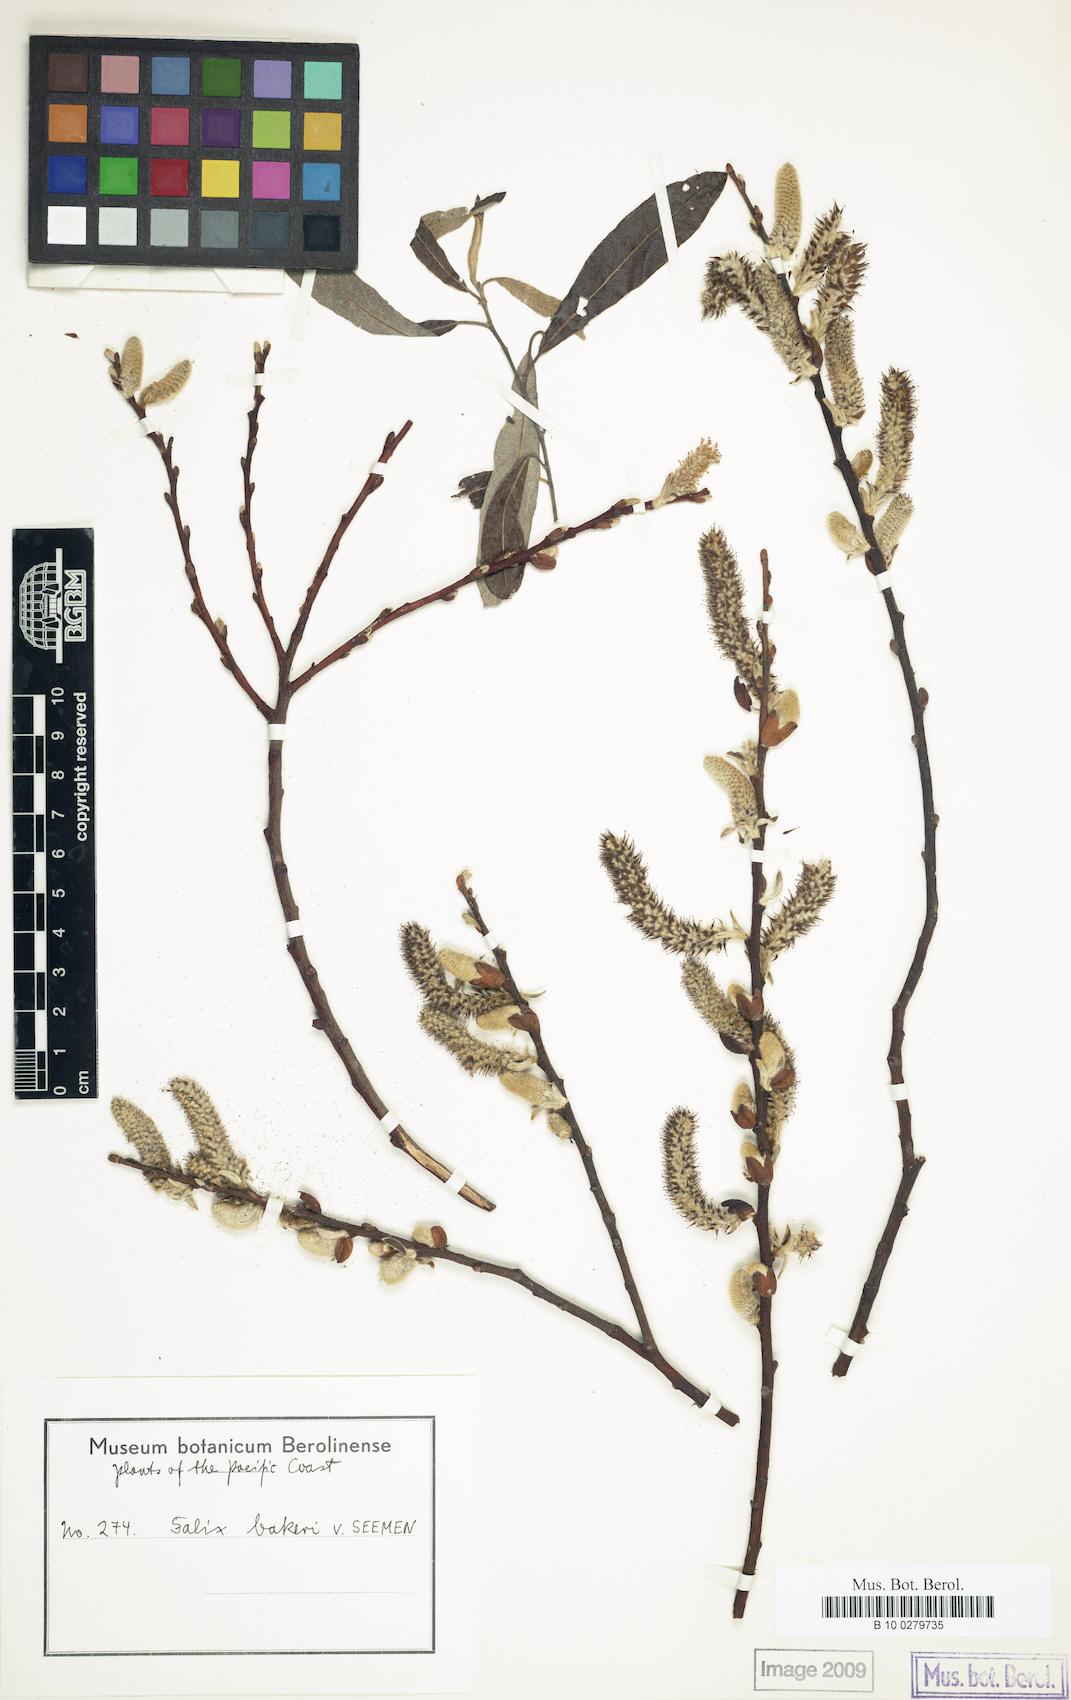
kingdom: Plantae
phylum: Tracheophyta
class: Magnoliopsida
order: Malpighiales
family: Salicaceae
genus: Salix
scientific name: Salix lasiolepis
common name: Arroyo willow
